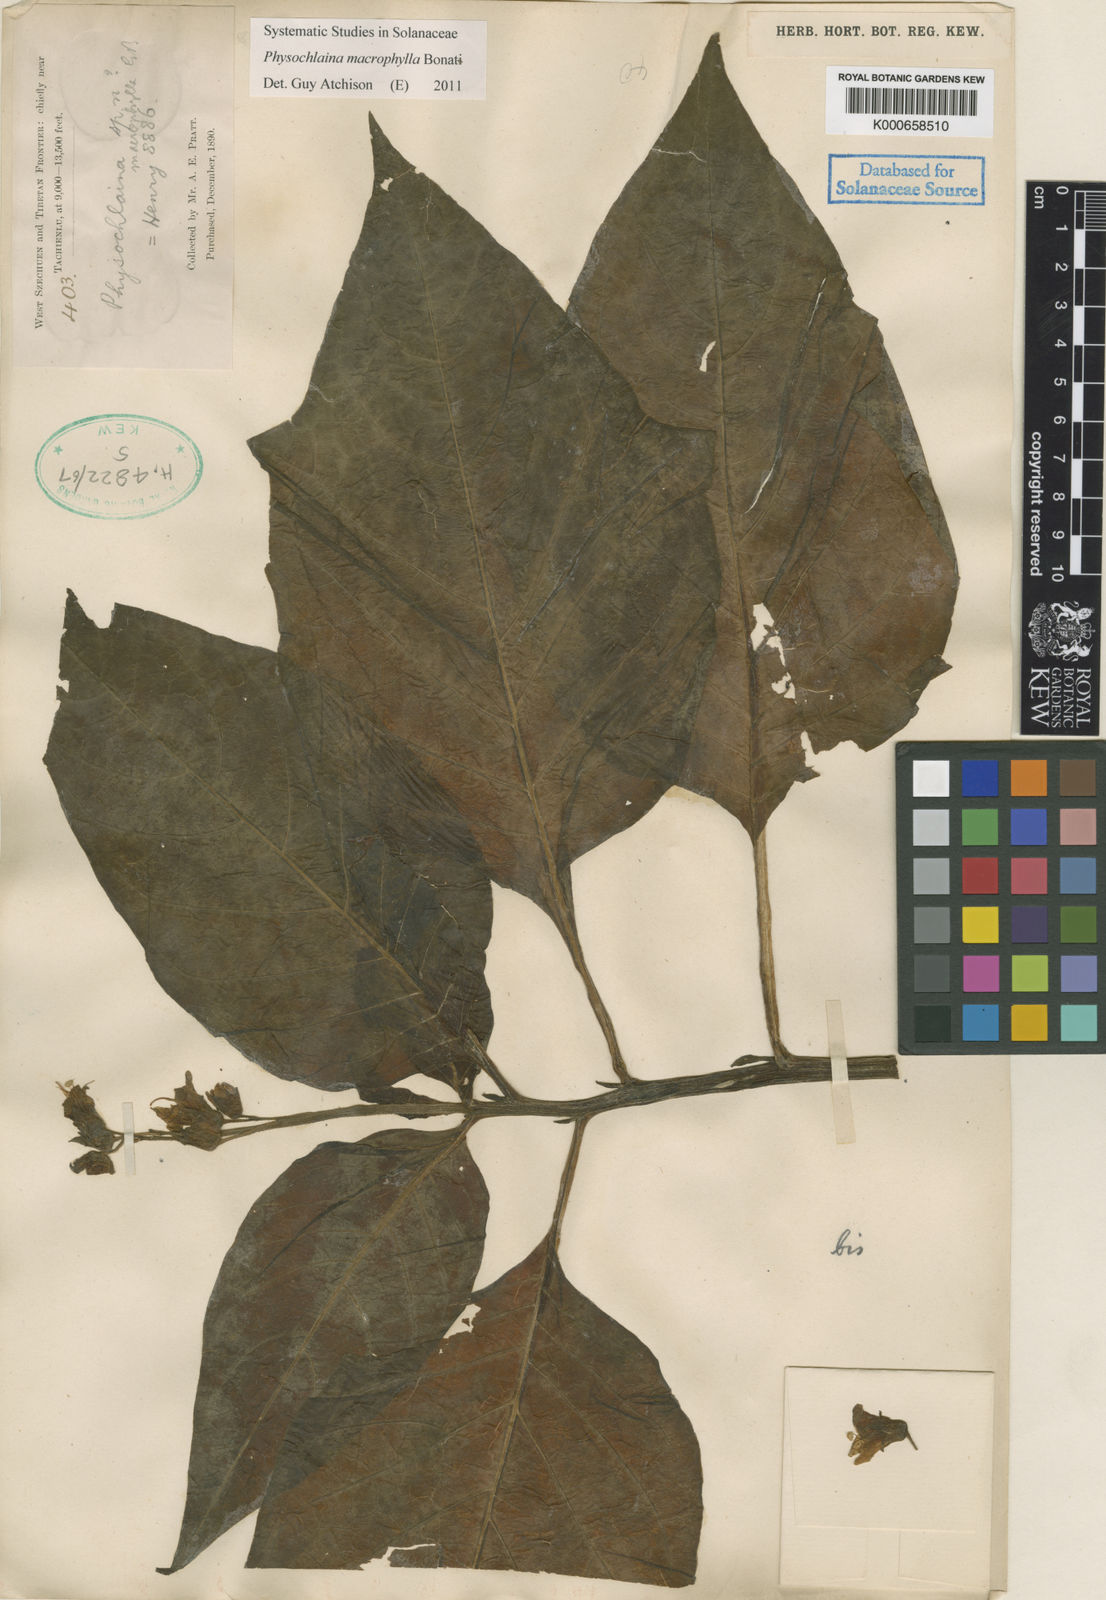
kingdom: Plantae
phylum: Tracheophyta
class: Magnoliopsida
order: Solanales
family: Solanaceae
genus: Physochlaina
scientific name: Physochlaina macrophylla
